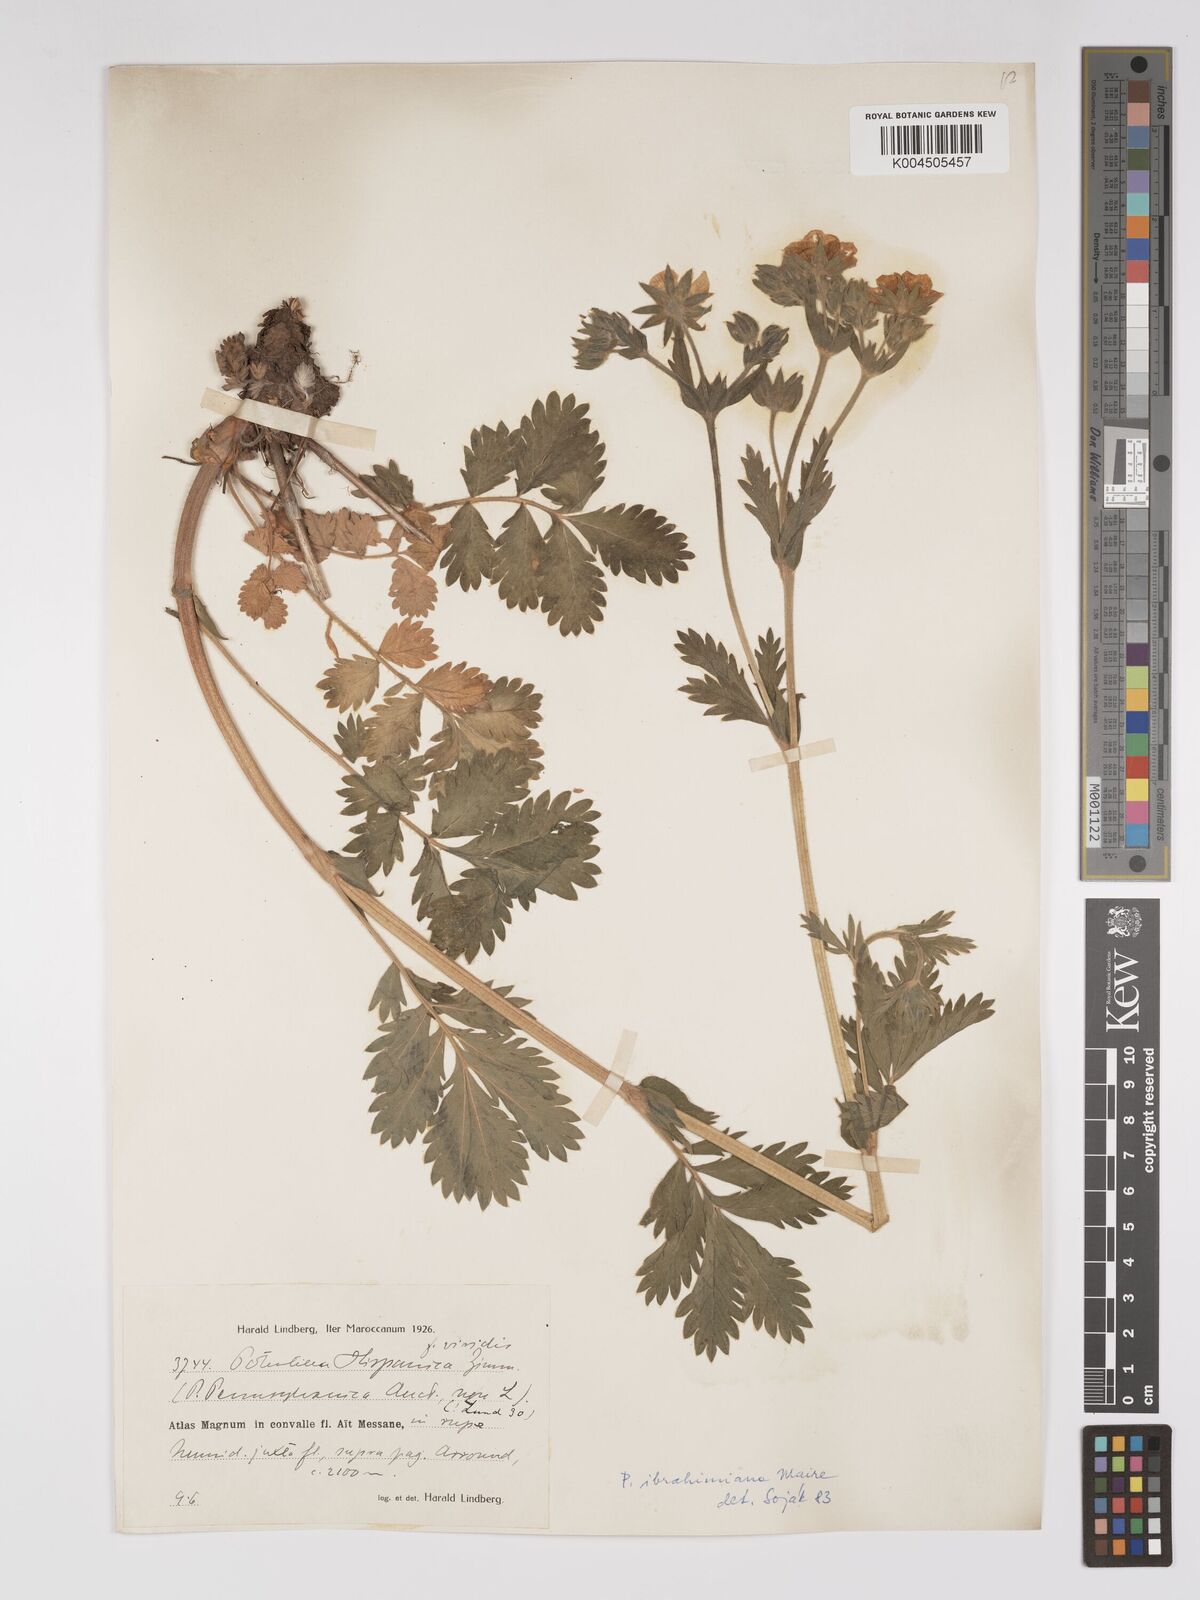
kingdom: Plantae
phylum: Tracheophyta
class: Magnoliopsida
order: Rosales
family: Rosaceae
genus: Potentilla
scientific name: Potentilla pensylvanica
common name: Pennsylvania cinquefoil
